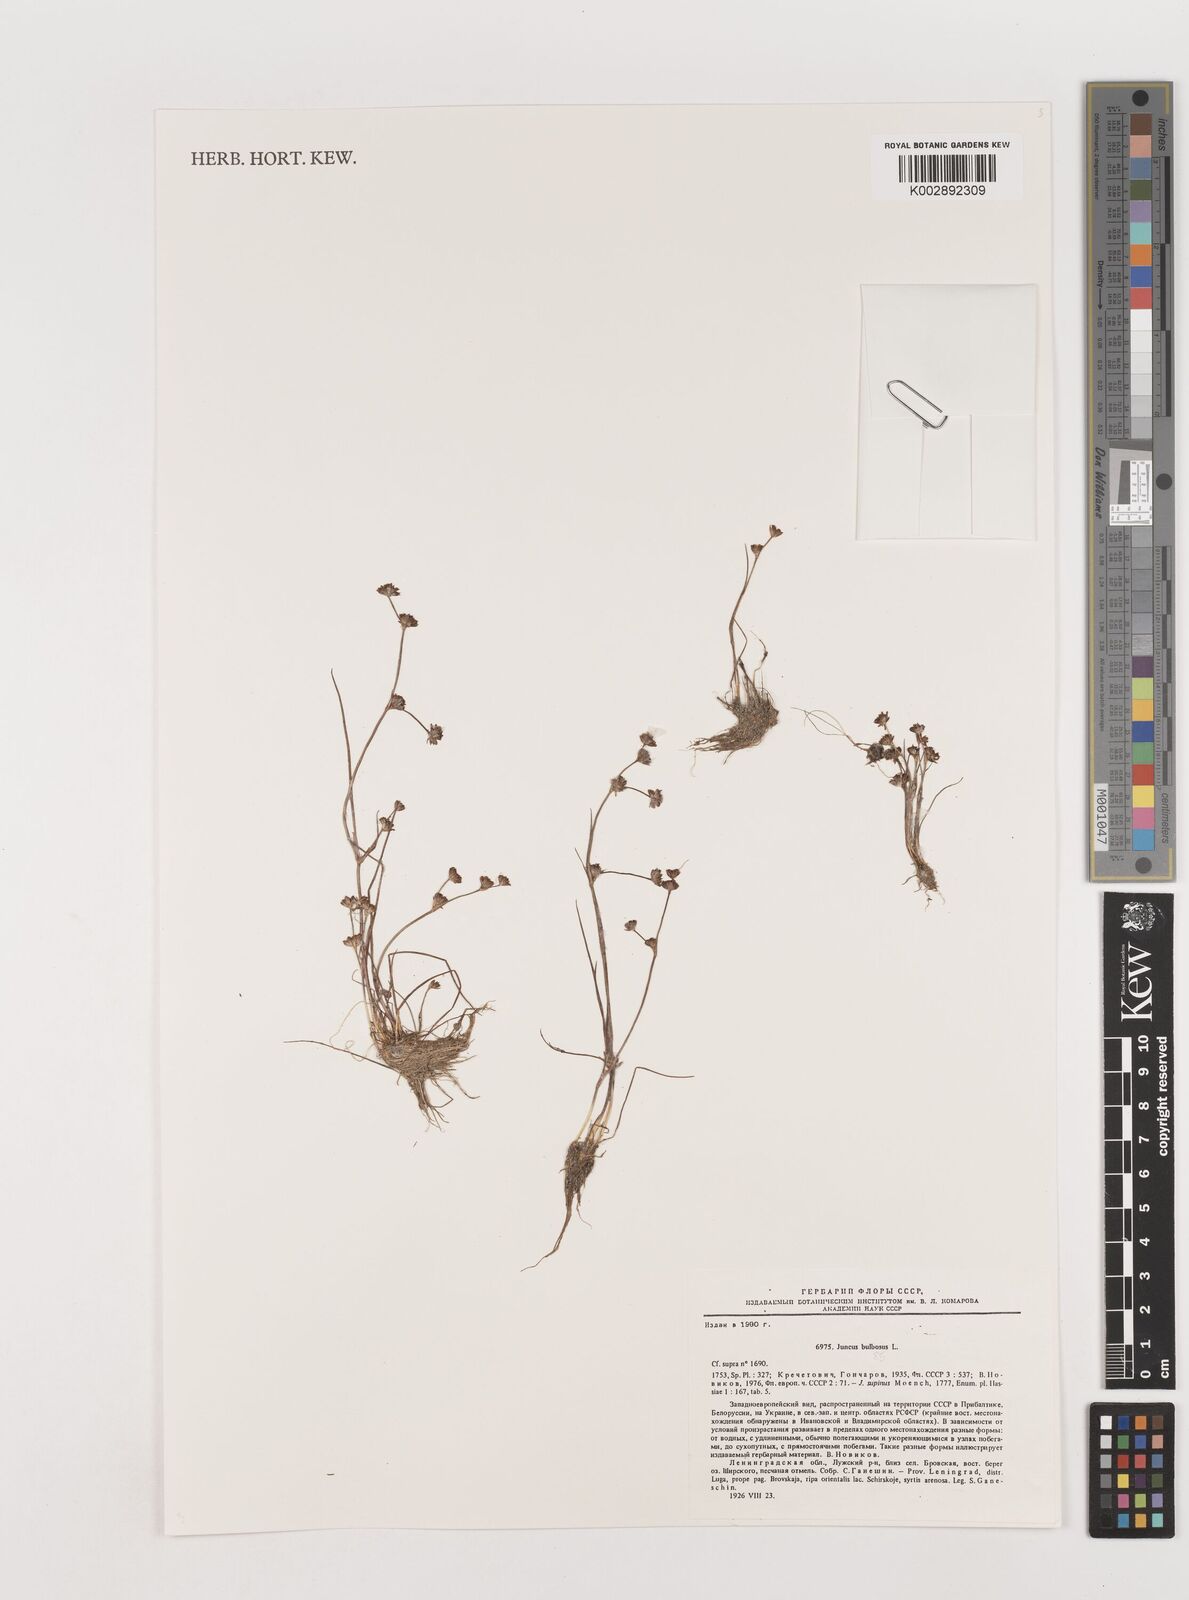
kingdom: Plantae
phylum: Tracheophyta
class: Liliopsida
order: Poales
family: Juncaceae
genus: Juncus
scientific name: Juncus bulbosus
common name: Bulbous rush
